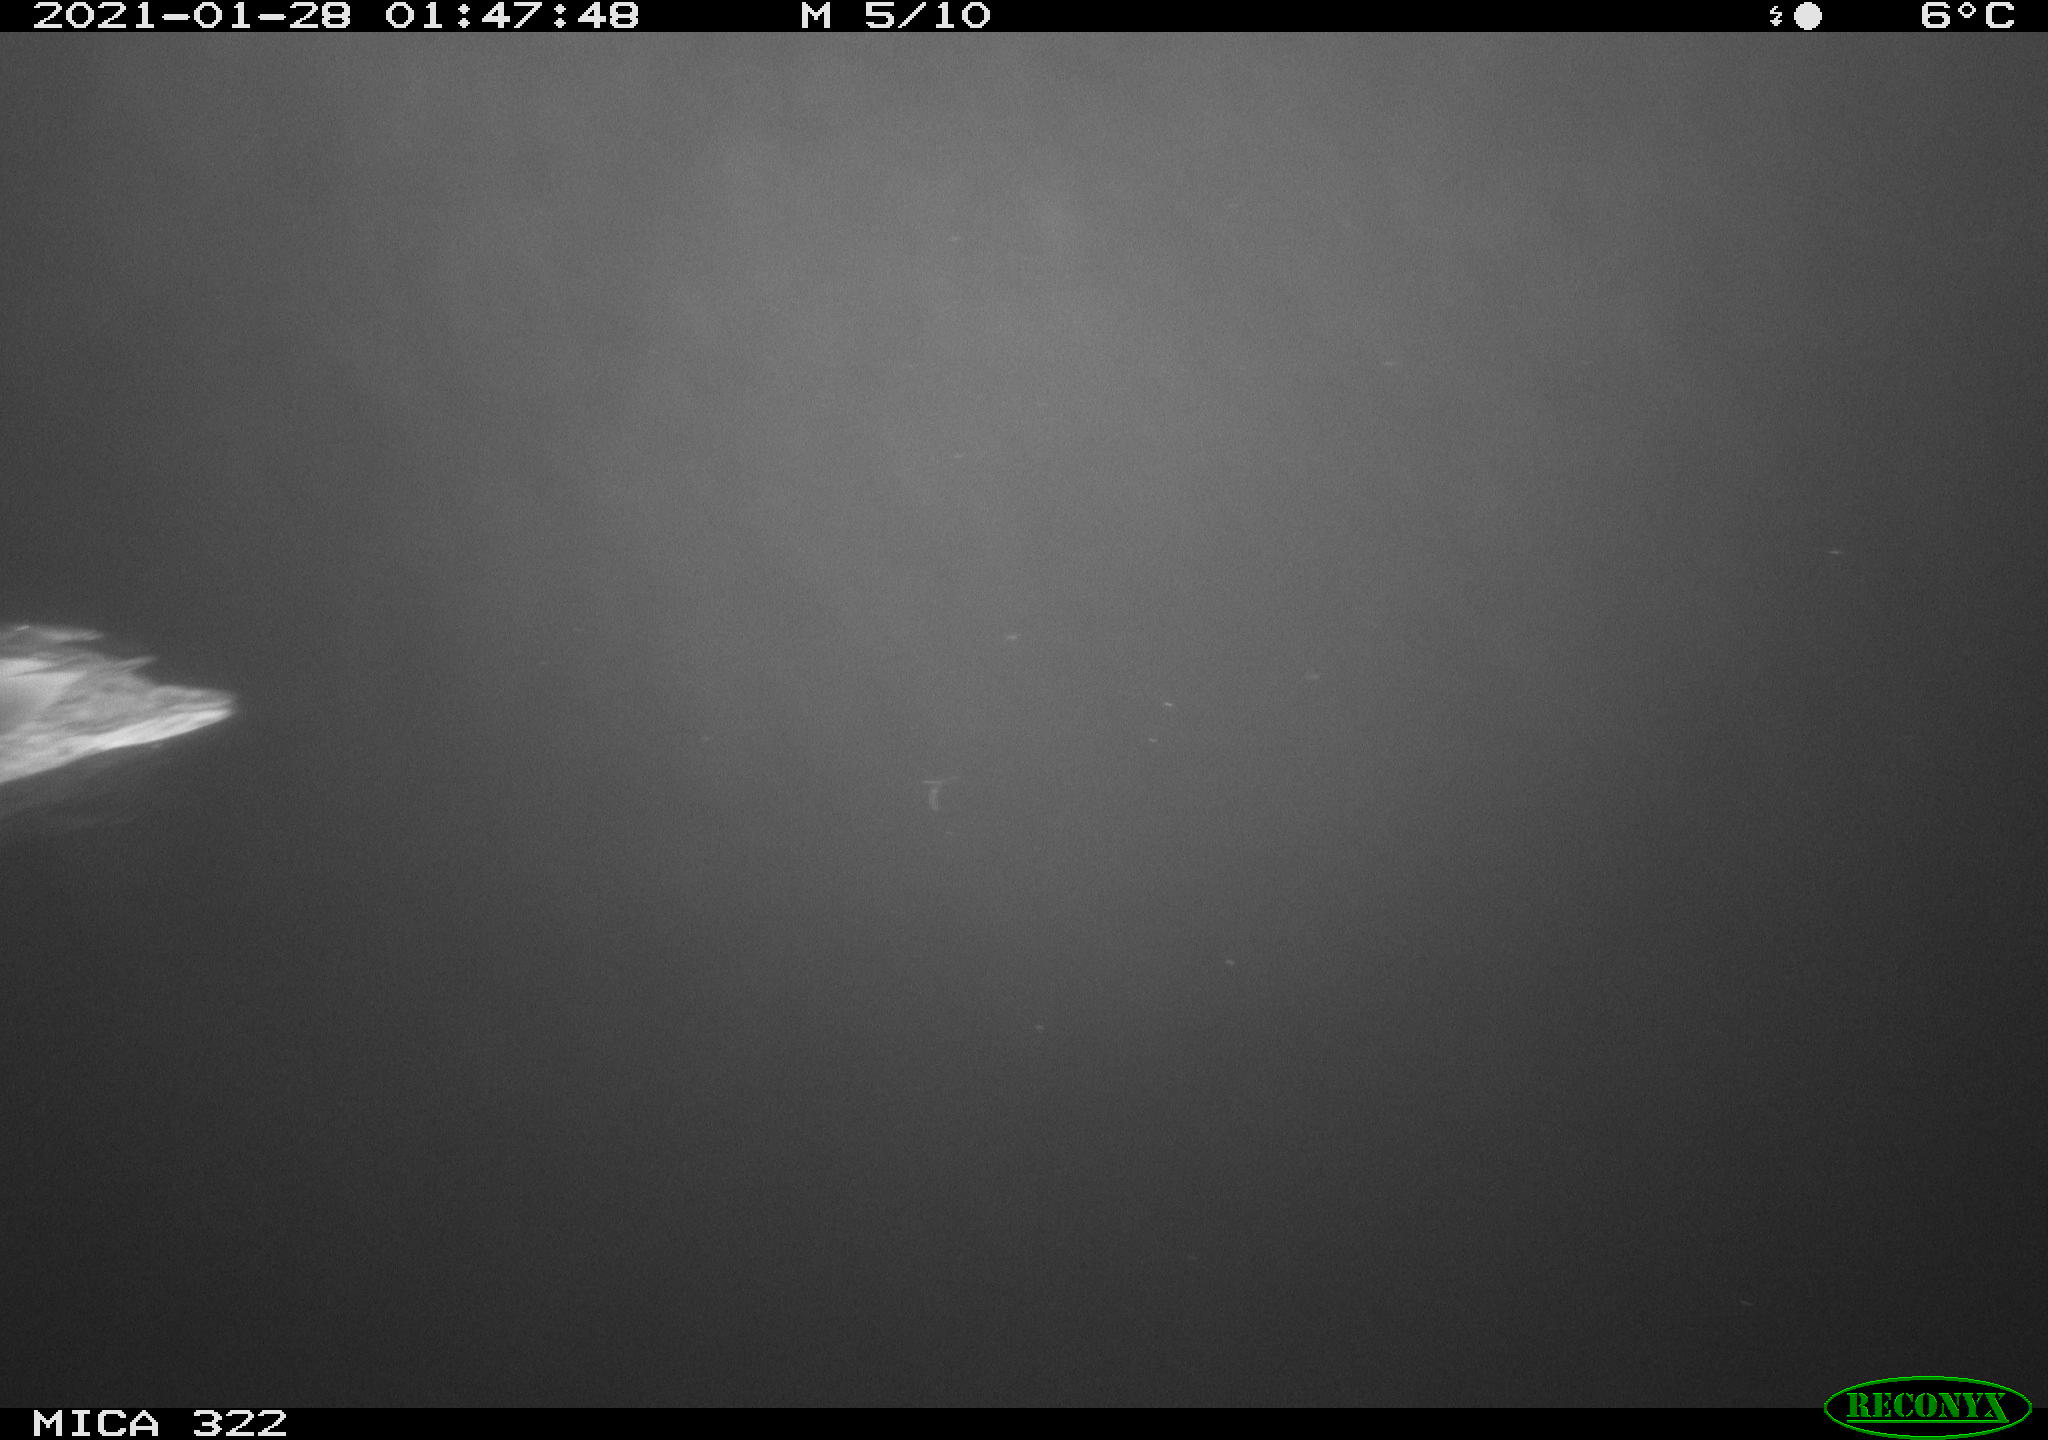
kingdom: Animalia
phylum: Chordata
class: Aves
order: Anseriformes
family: Anatidae
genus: Anas
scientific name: Anas platyrhynchos
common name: Mallard
